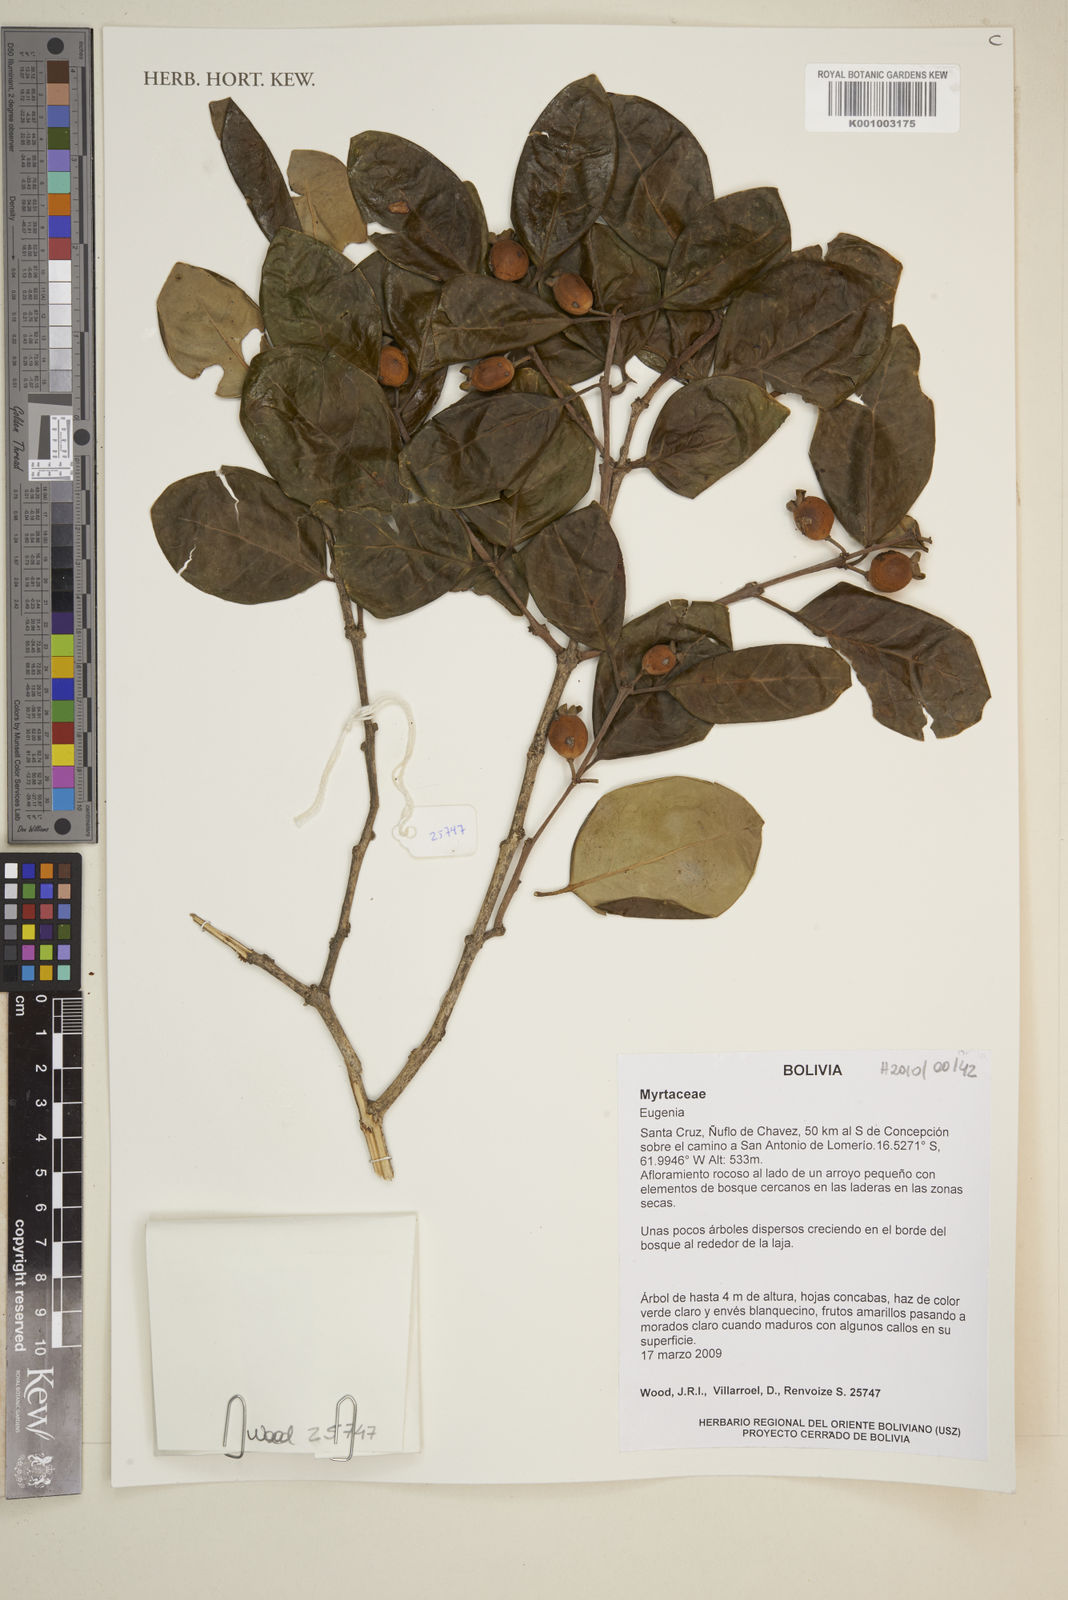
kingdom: Plantae
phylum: Tracheophyta
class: Magnoliopsida
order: Myrtales
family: Myrtaceae
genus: Eugenia
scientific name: Eugenia cydoniifolia
